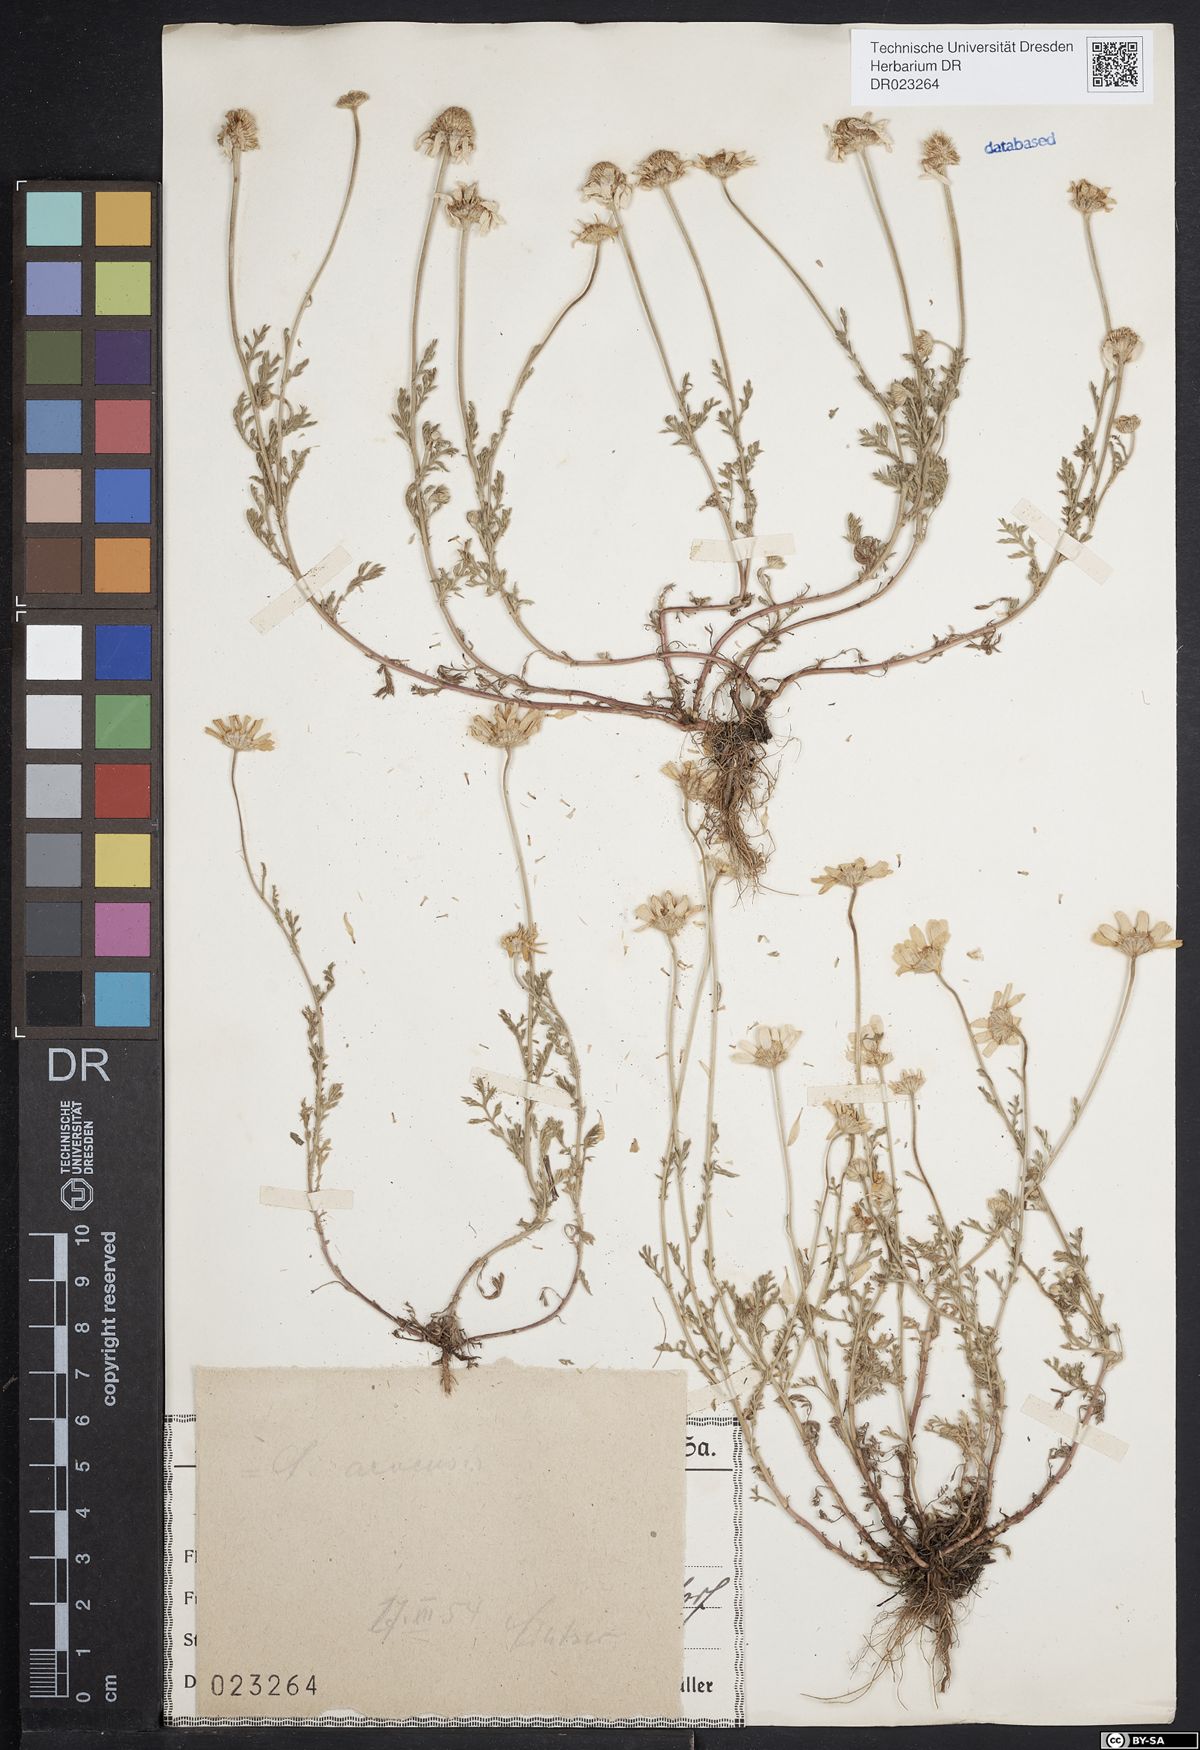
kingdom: Plantae
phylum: Tracheophyta
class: Magnoliopsida
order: Asterales
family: Asteraceae
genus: Anthemis
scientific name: Anthemis arvensis
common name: Corn chamomile
